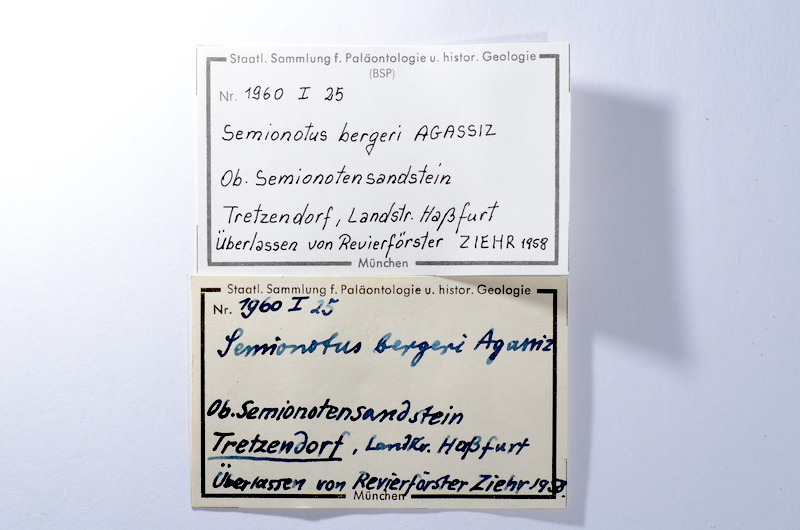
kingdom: Animalia
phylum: Chordata
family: Redfieldiidae
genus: Dictyopyge
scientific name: Dictyopyge
